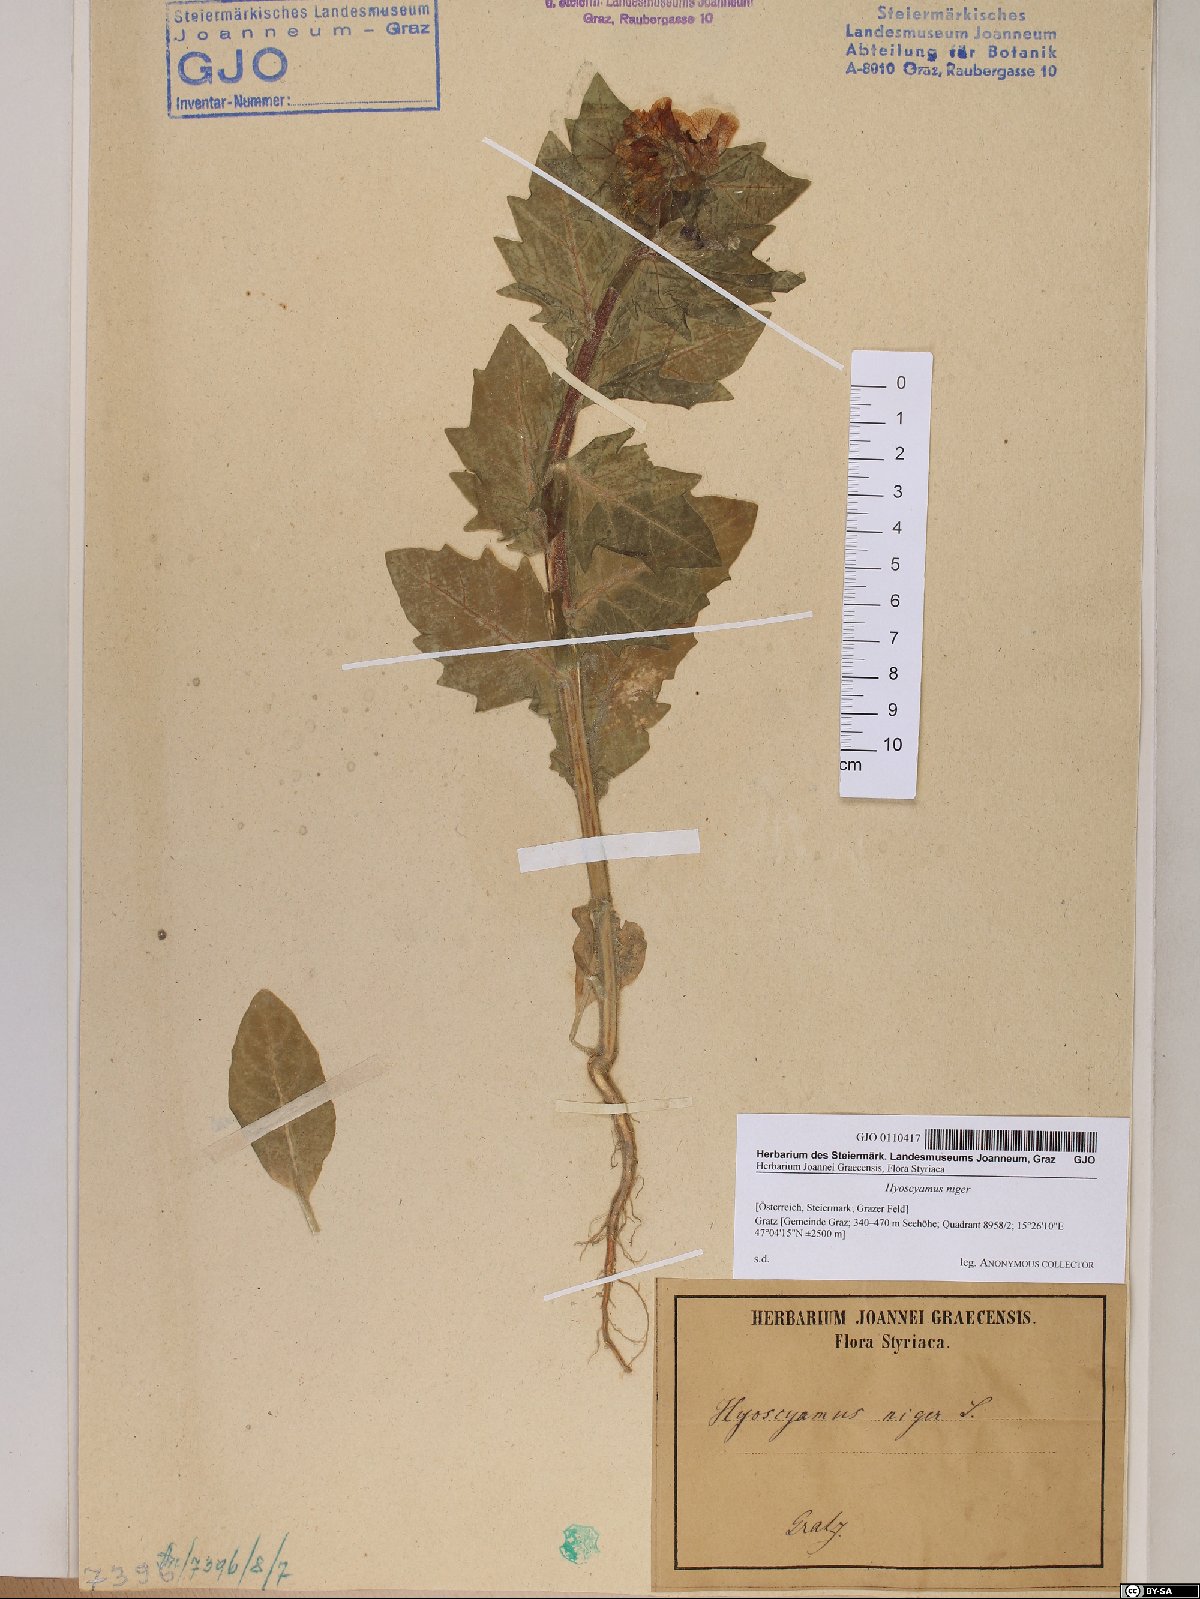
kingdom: Plantae
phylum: Tracheophyta
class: Magnoliopsida
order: Solanales
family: Solanaceae
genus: Hyoscyamus
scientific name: Hyoscyamus niger
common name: Henbane
